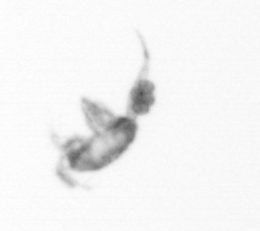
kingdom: Animalia
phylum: Arthropoda
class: Copepoda
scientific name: Copepoda
